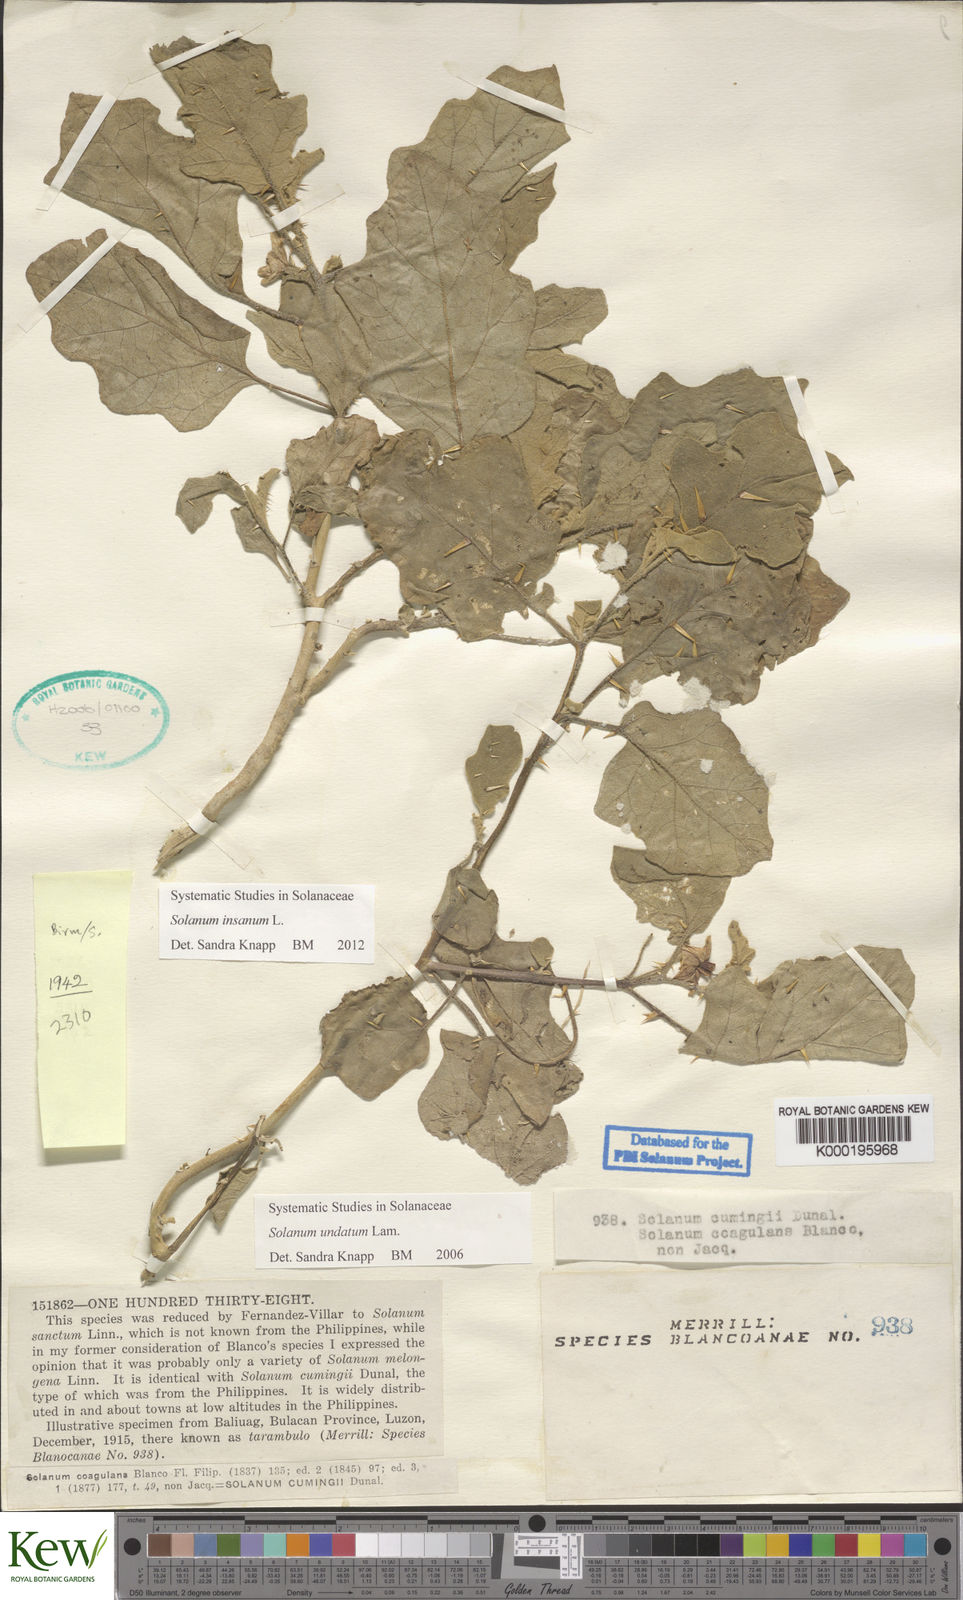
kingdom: Plantae
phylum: Tracheophyta
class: Magnoliopsida
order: Solanales
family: Solanaceae
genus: Solanum
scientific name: Solanum insanum
